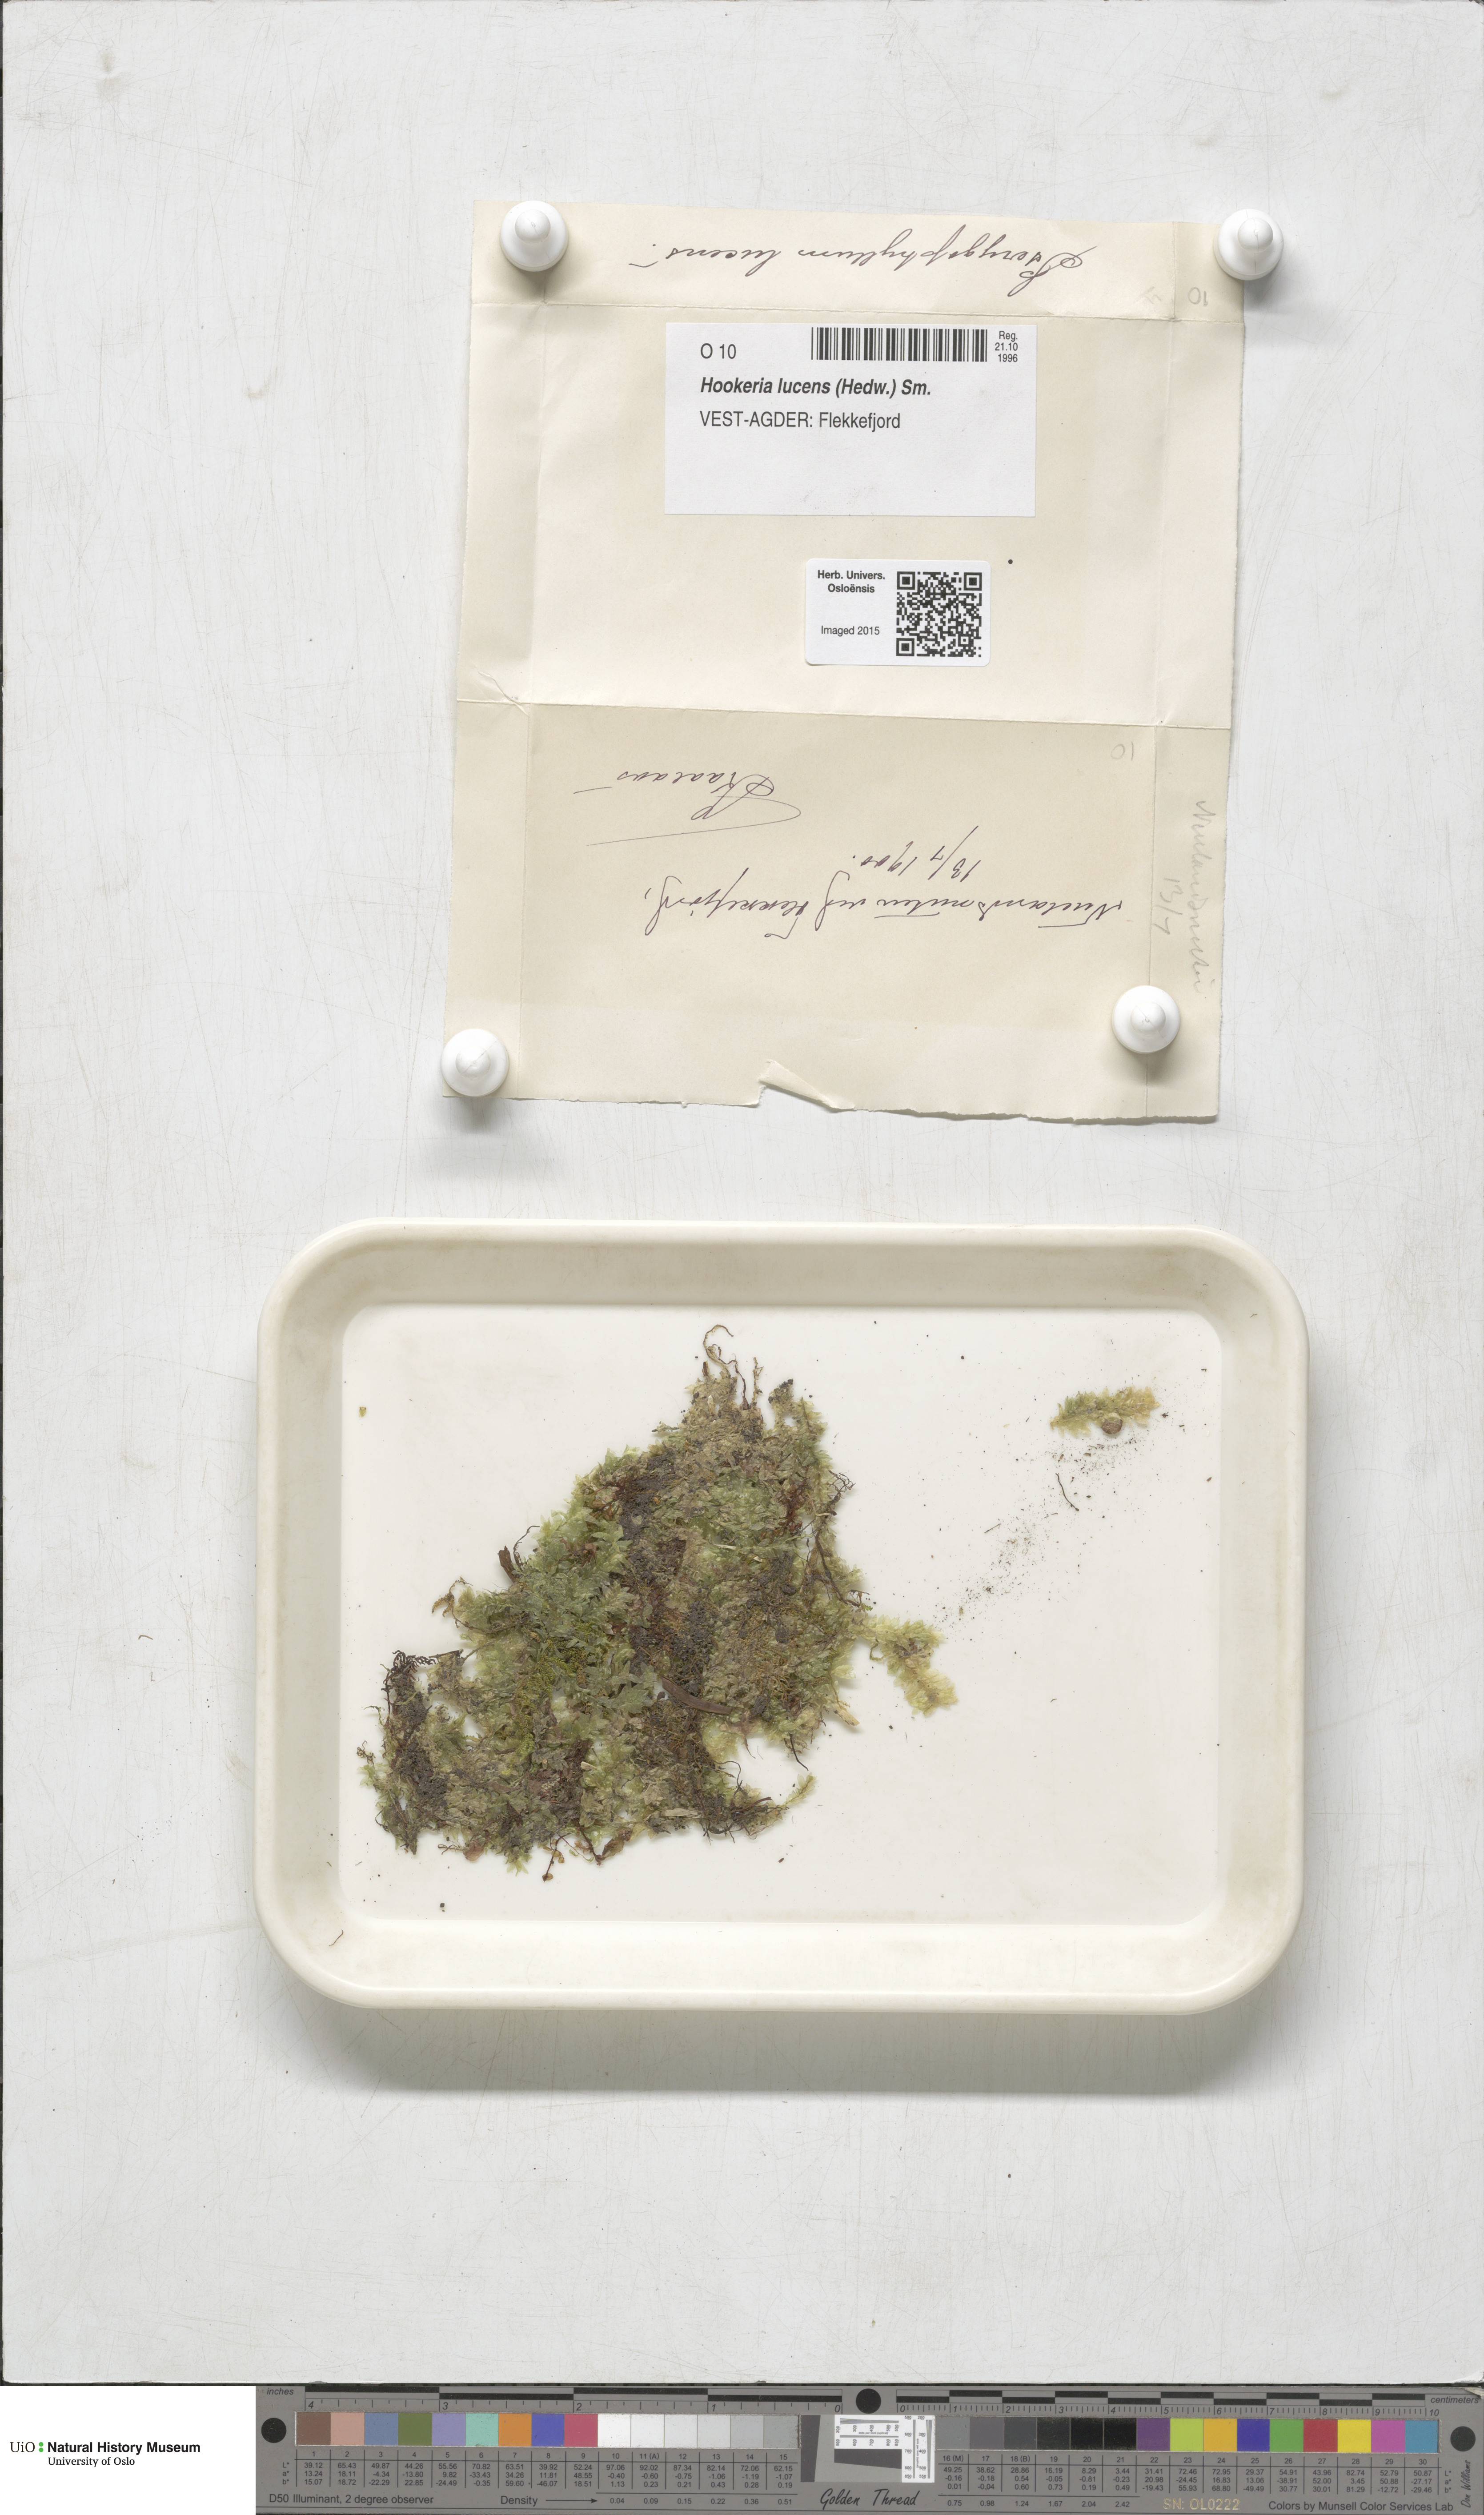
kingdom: Plantae
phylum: Bryophyta
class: Bryopsida
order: Hookeriales
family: Hookeriaceae
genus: Hookeria
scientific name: Hookeria lucens
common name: Shining hookeria
